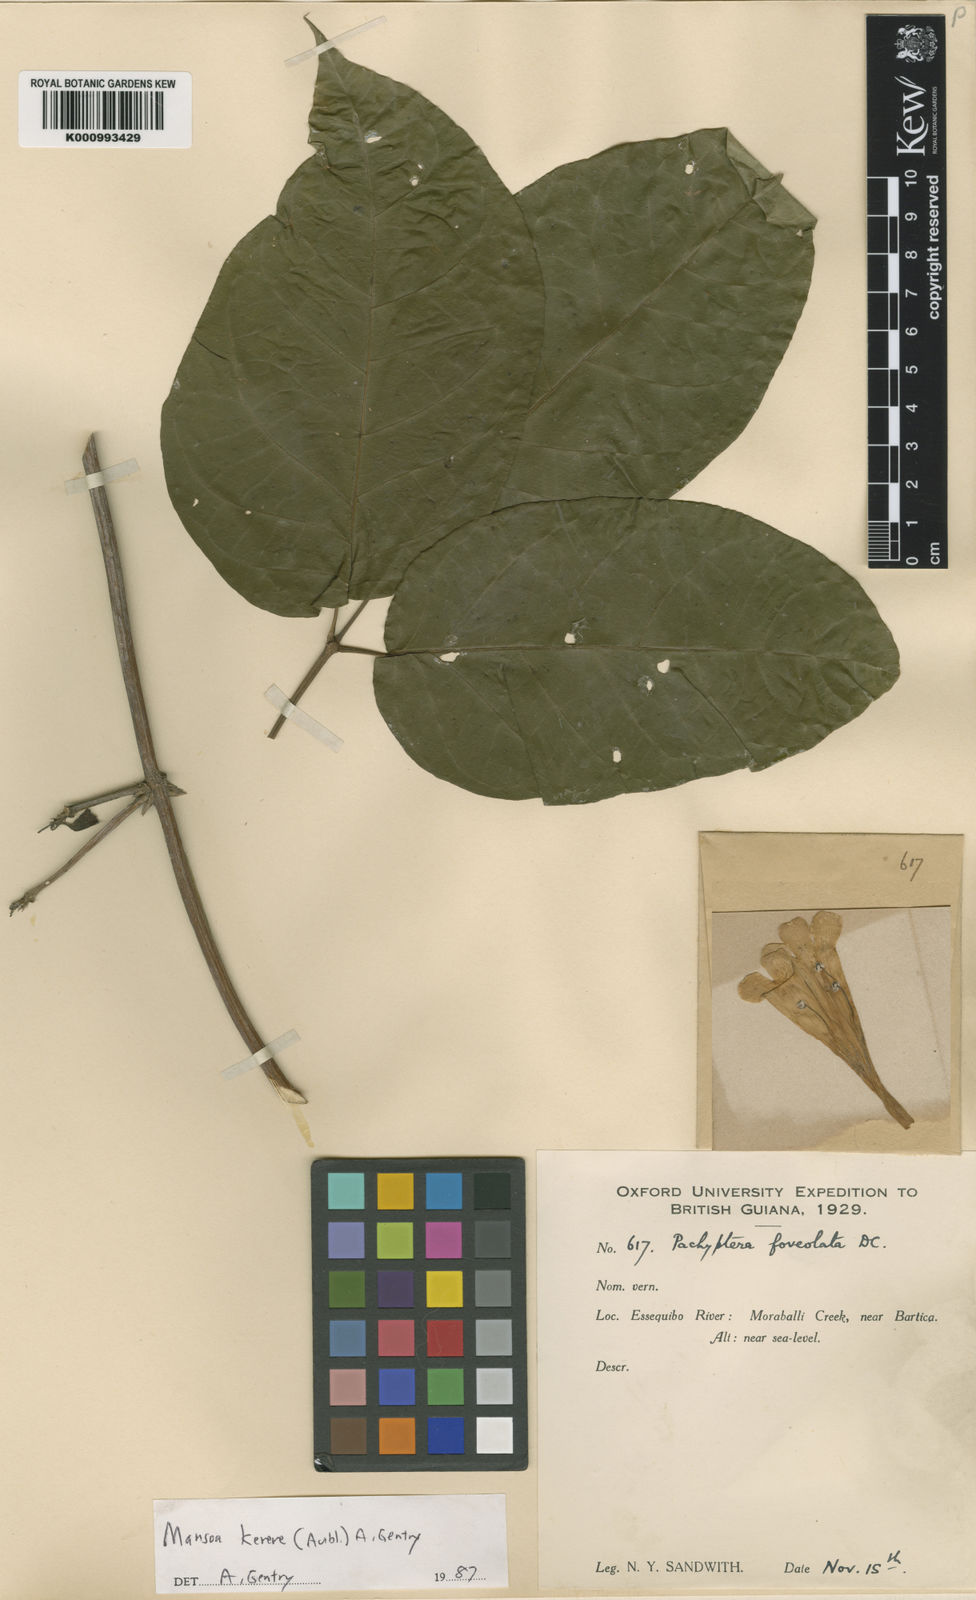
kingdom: Plantae
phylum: Tracheophyta
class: Magnoliopsida
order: Lamiales
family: Bignoniaceae
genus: Pachyptera
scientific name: Pachyptera kerere
